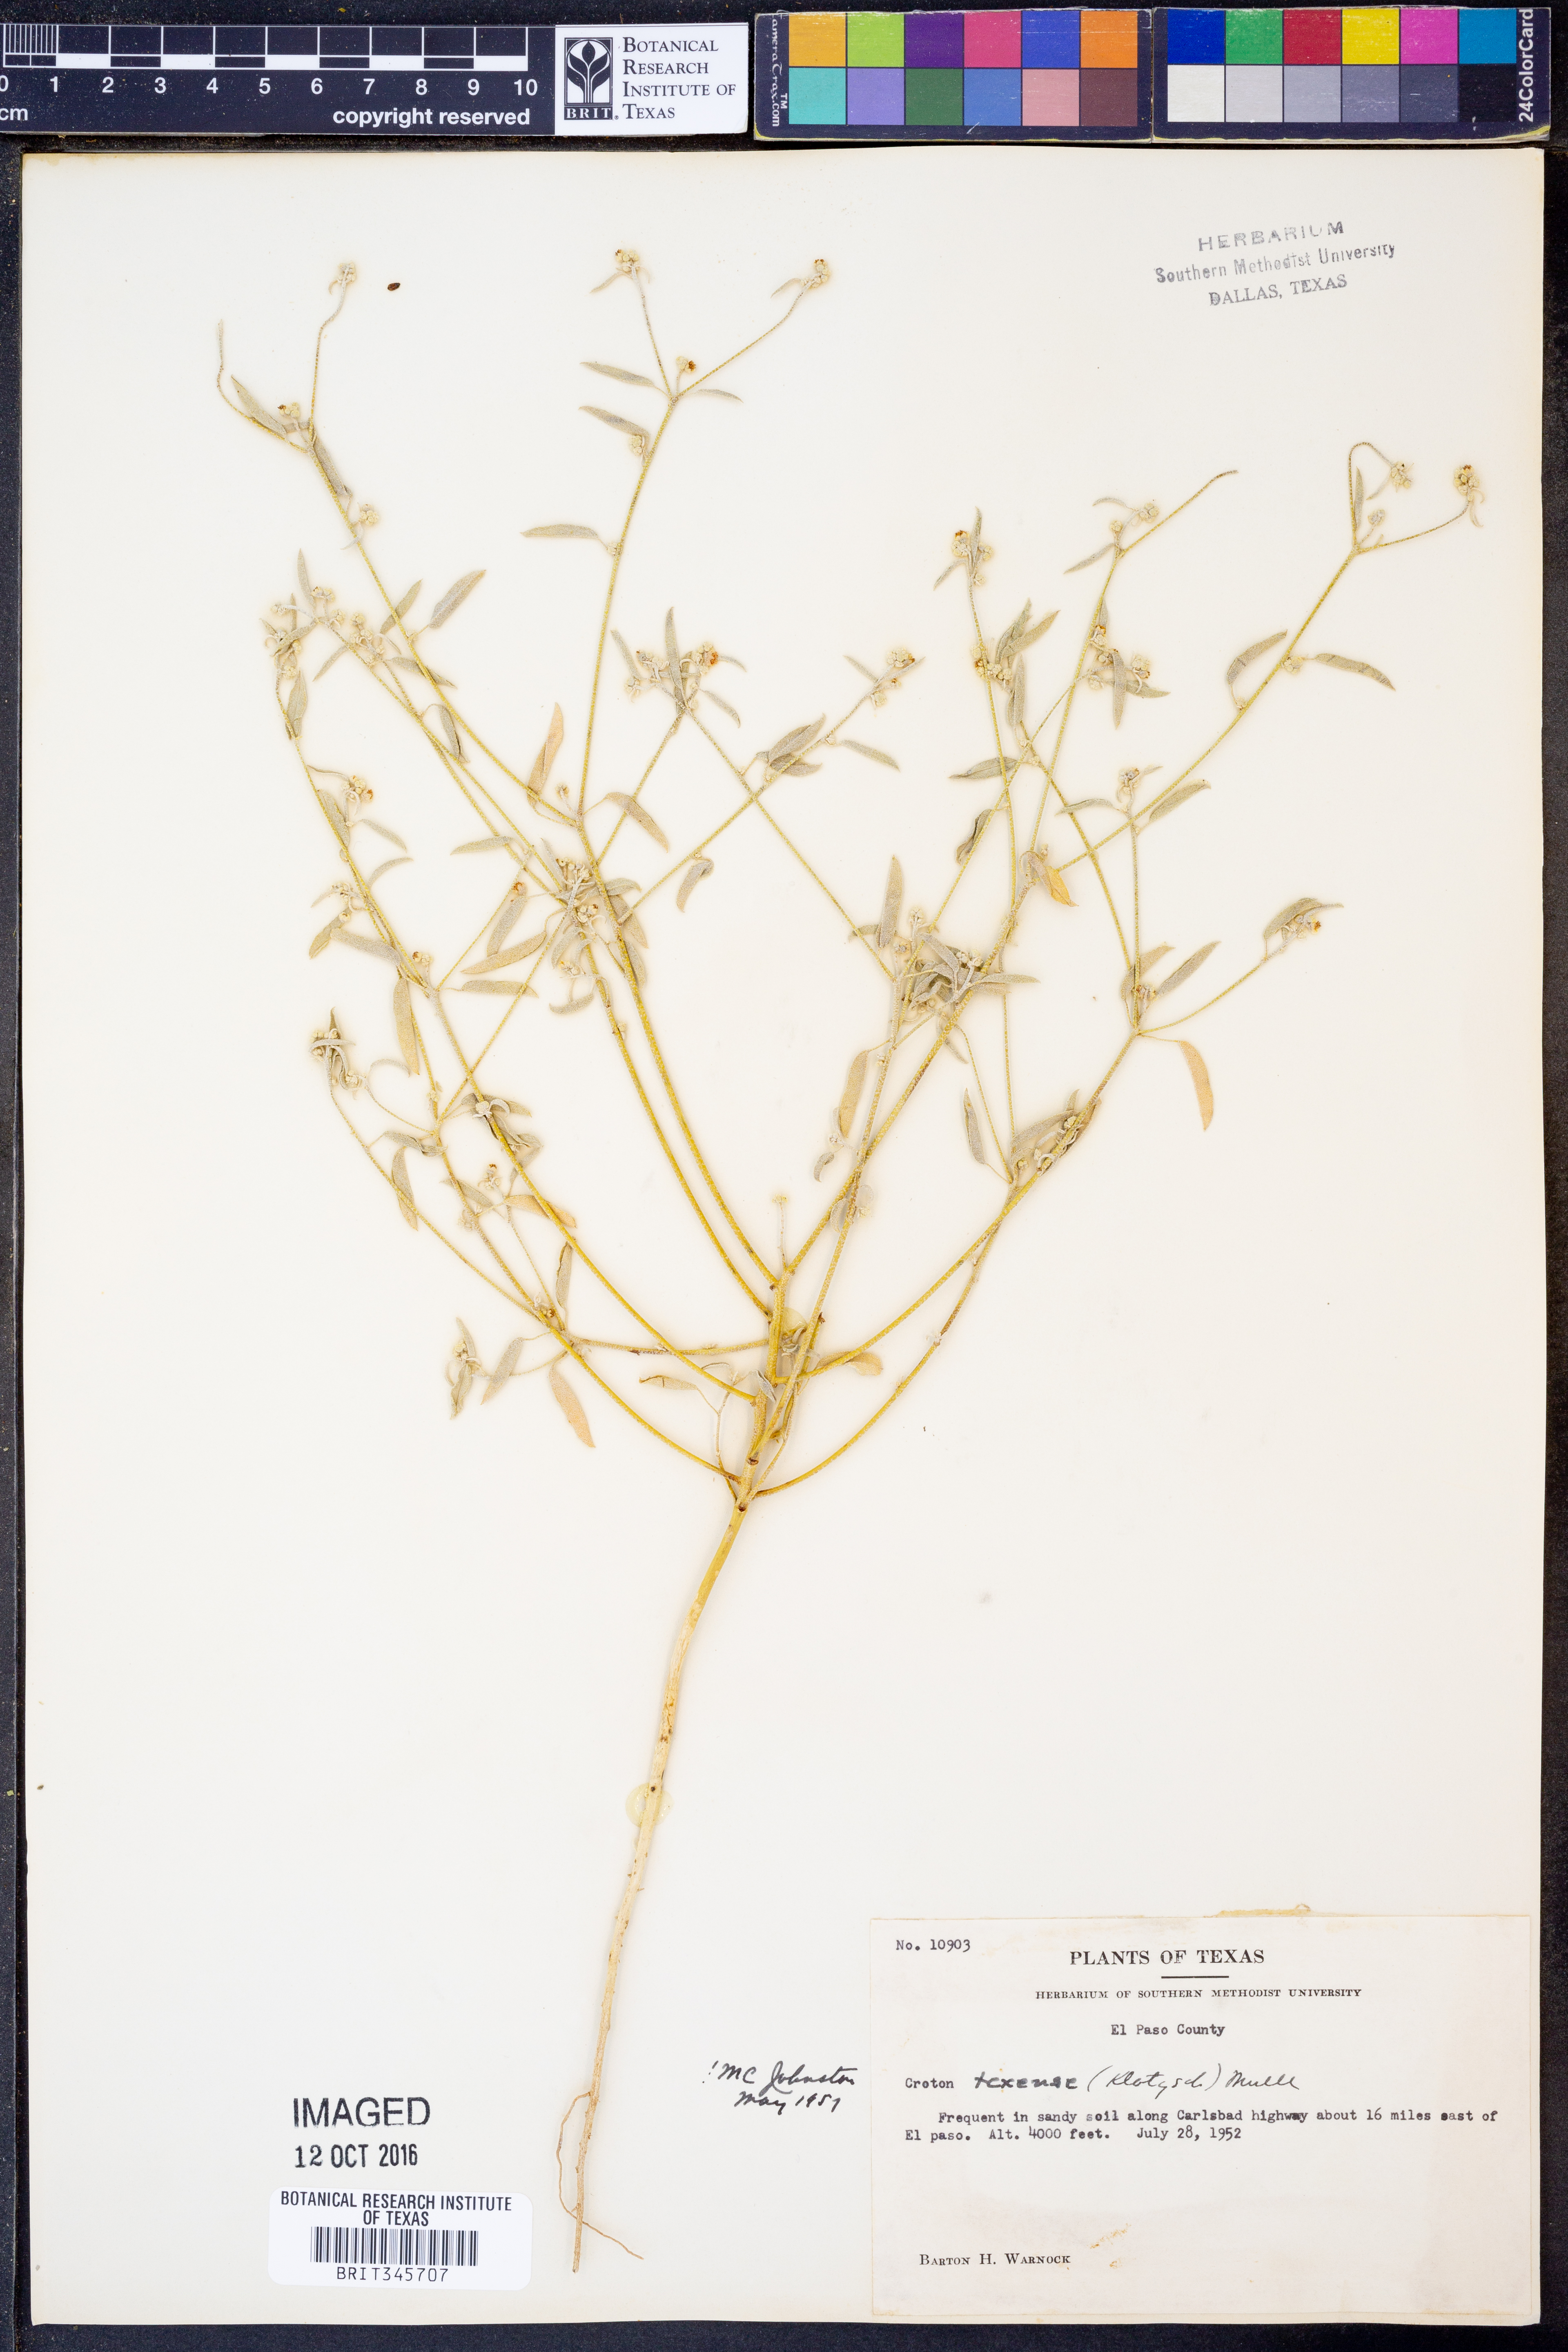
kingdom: Plantae
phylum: Tracheophyta
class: Magnoliopsida
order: Malpighiales
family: Euphorbiaceae
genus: Croton
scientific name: Croton texensis
